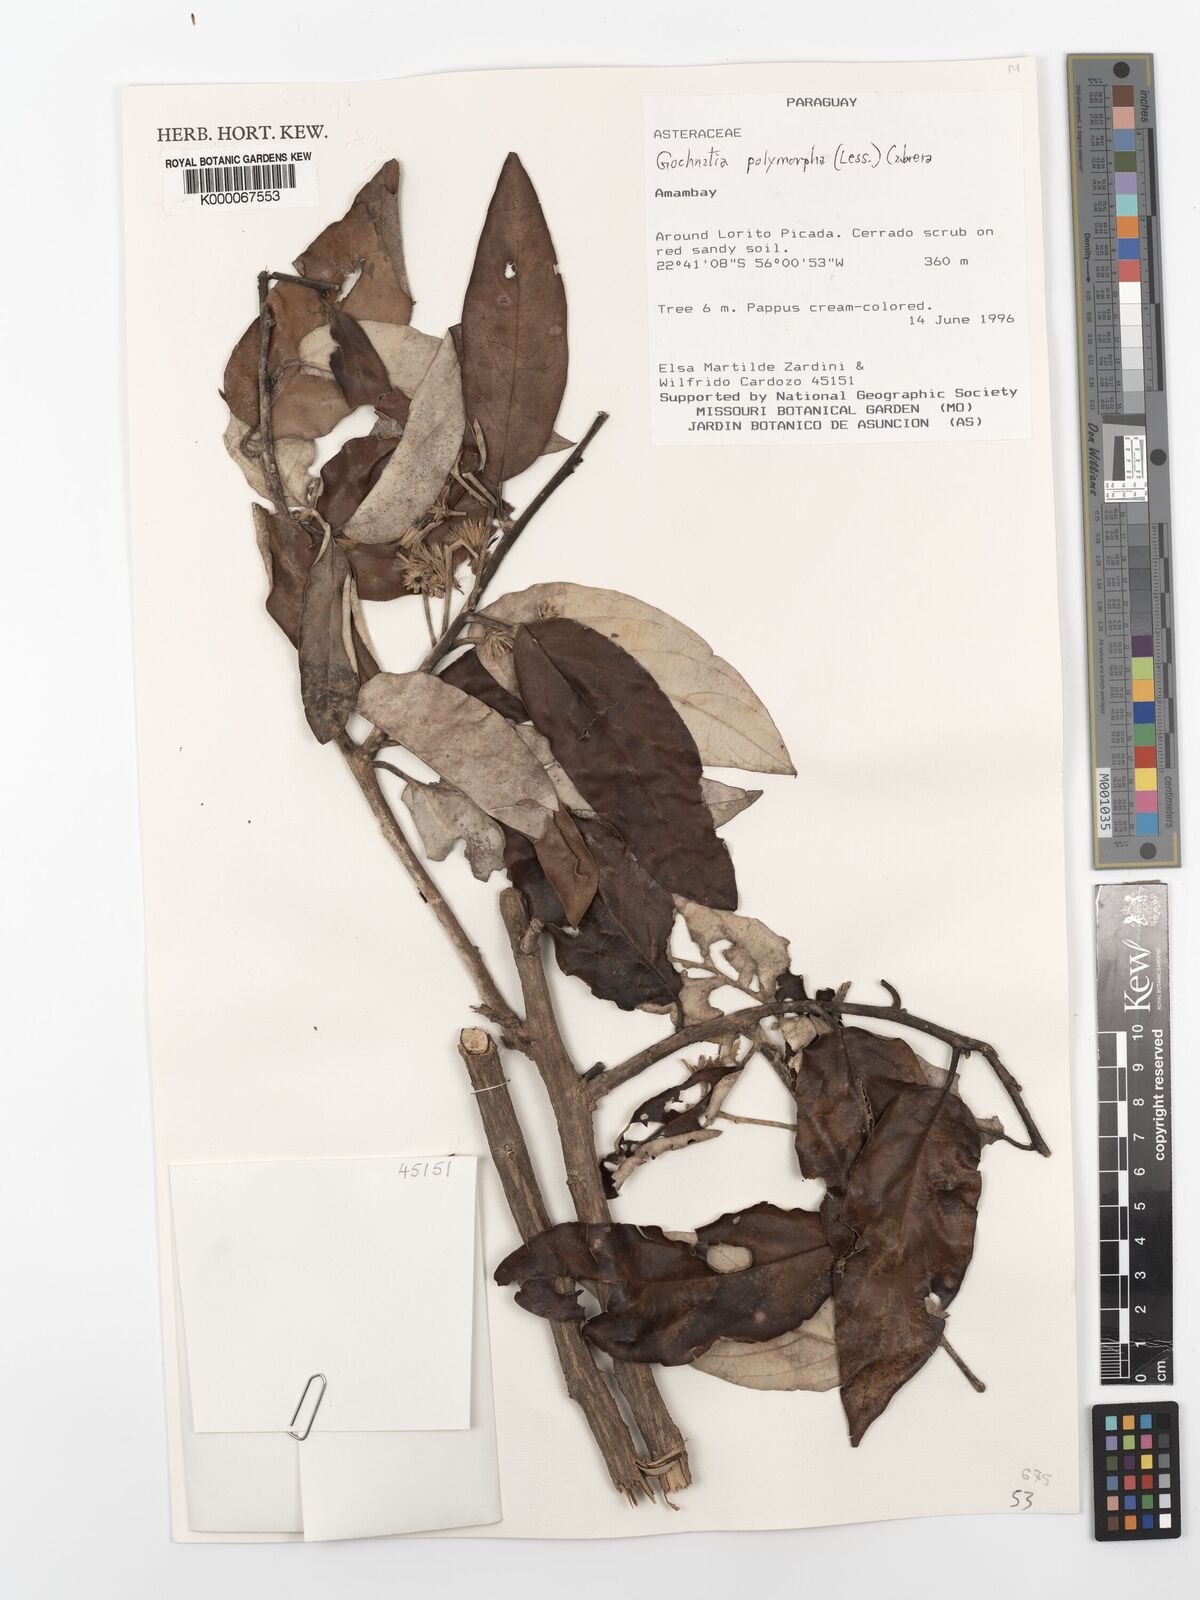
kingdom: Plantae
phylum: Tracheophyta
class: Magnoliopsida
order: Asterales
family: Asteraceae
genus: Moquiniastrum
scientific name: Moquiniastrum polymorphum
